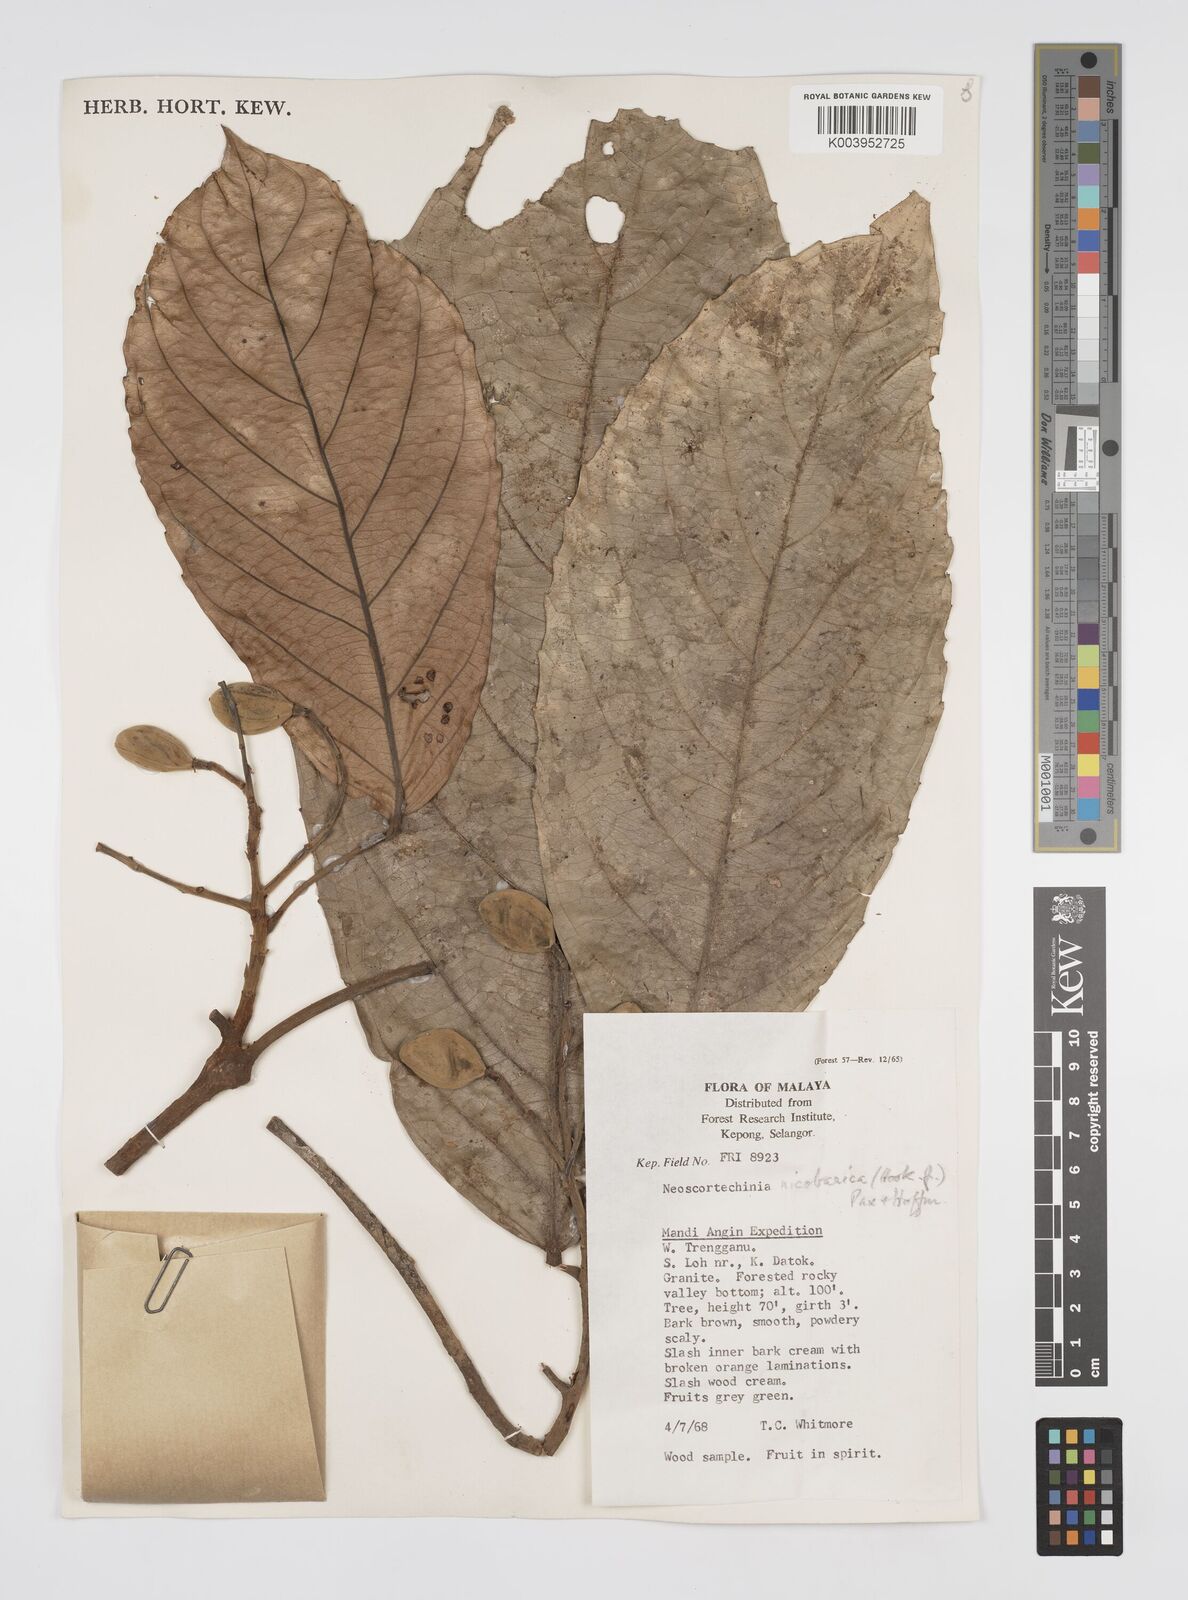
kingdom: Plantae
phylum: Tracheophyta
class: Magnoliopsida
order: Malpighiales
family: Euphorbiaceae
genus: Neoscortechinia
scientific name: Neoscortechinia nicobarica
